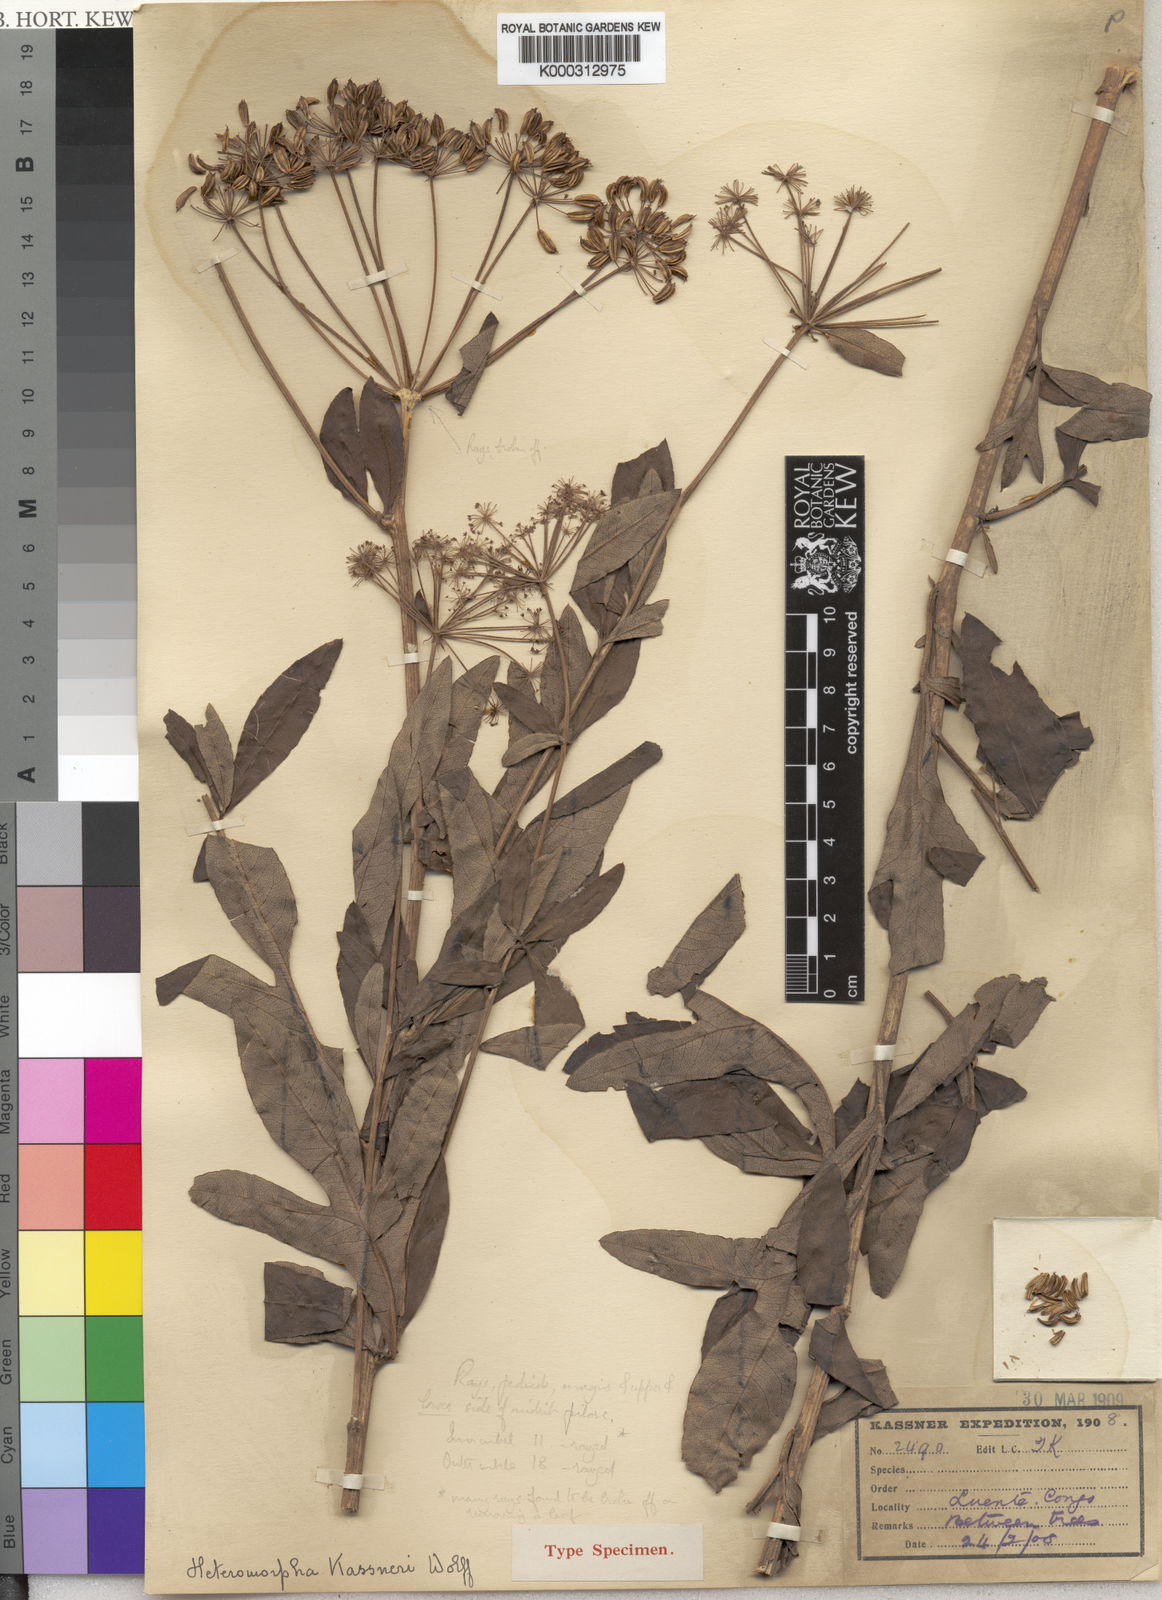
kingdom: Plantae
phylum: Tracheophyta
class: Magnoliopsida
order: Apiales
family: Apiaceae
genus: Heteromorpha
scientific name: Heteromorpha arborescens
